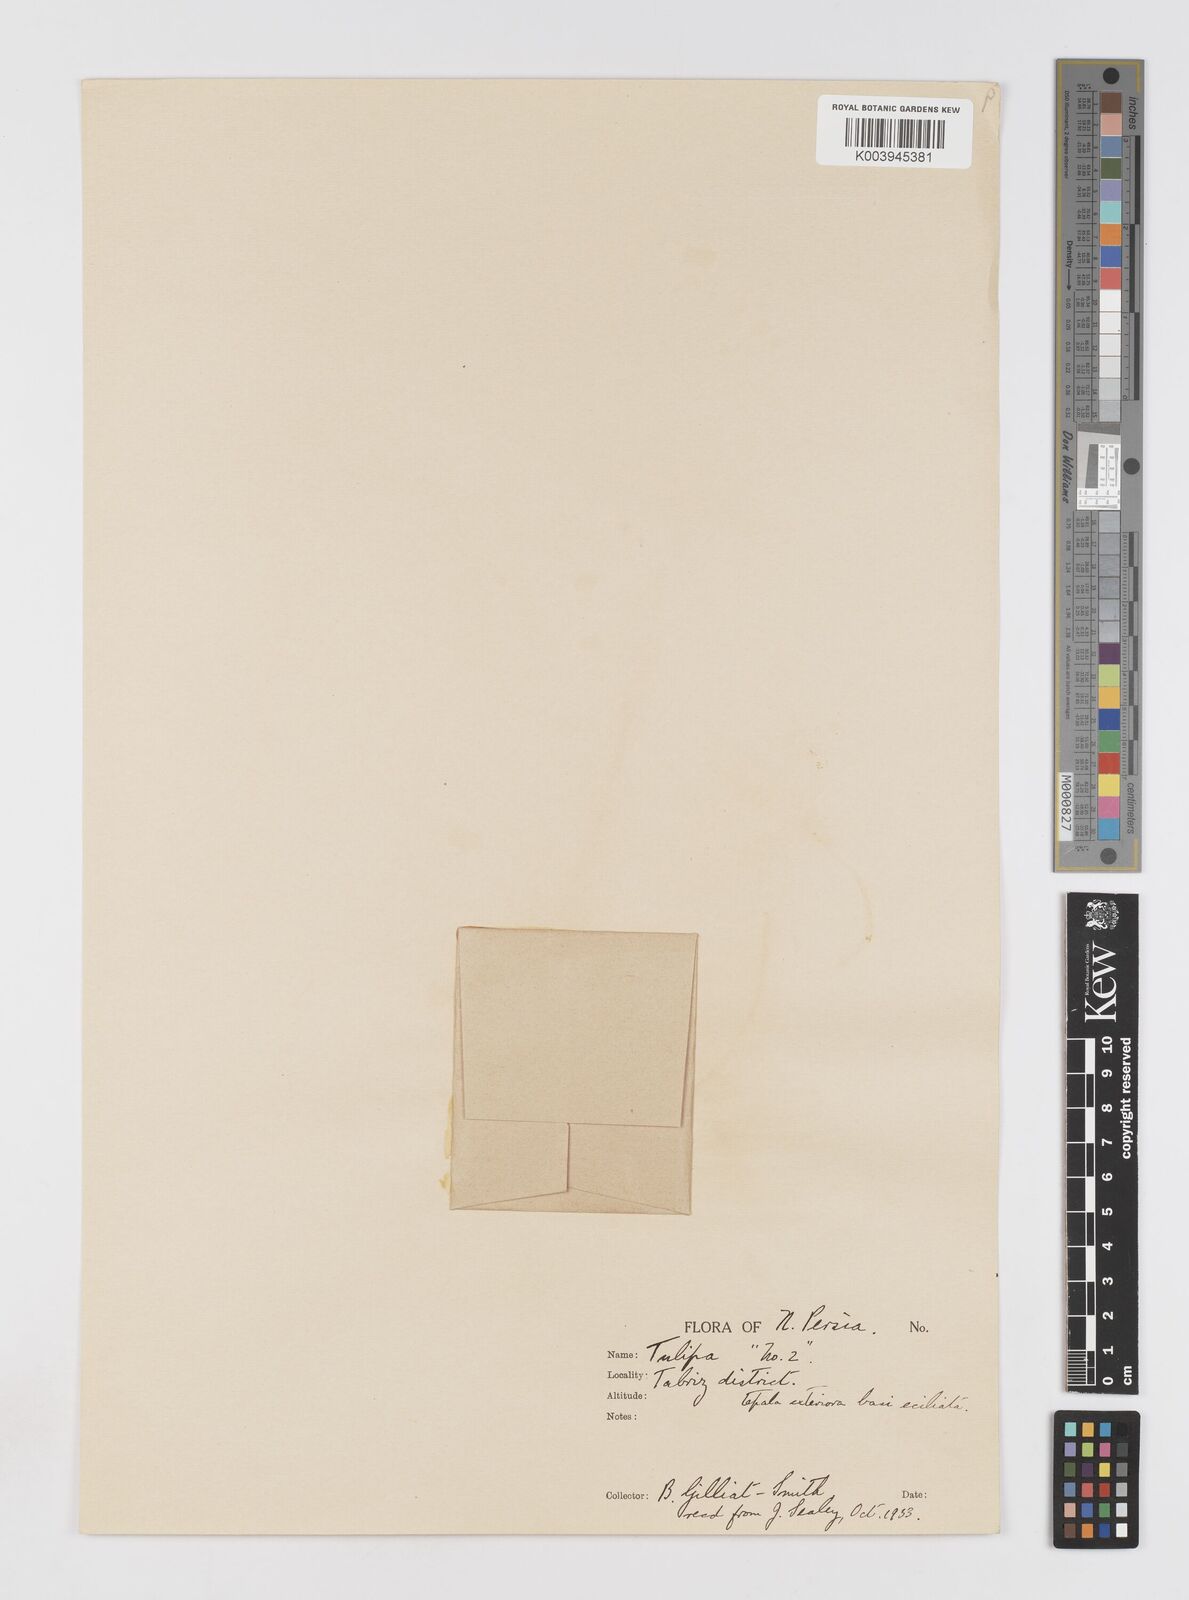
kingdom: Plantae
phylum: Tracheophyta
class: Liliopsida
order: Liliales
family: Liliaceae
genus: Tulipa
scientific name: Tulipa humilis
